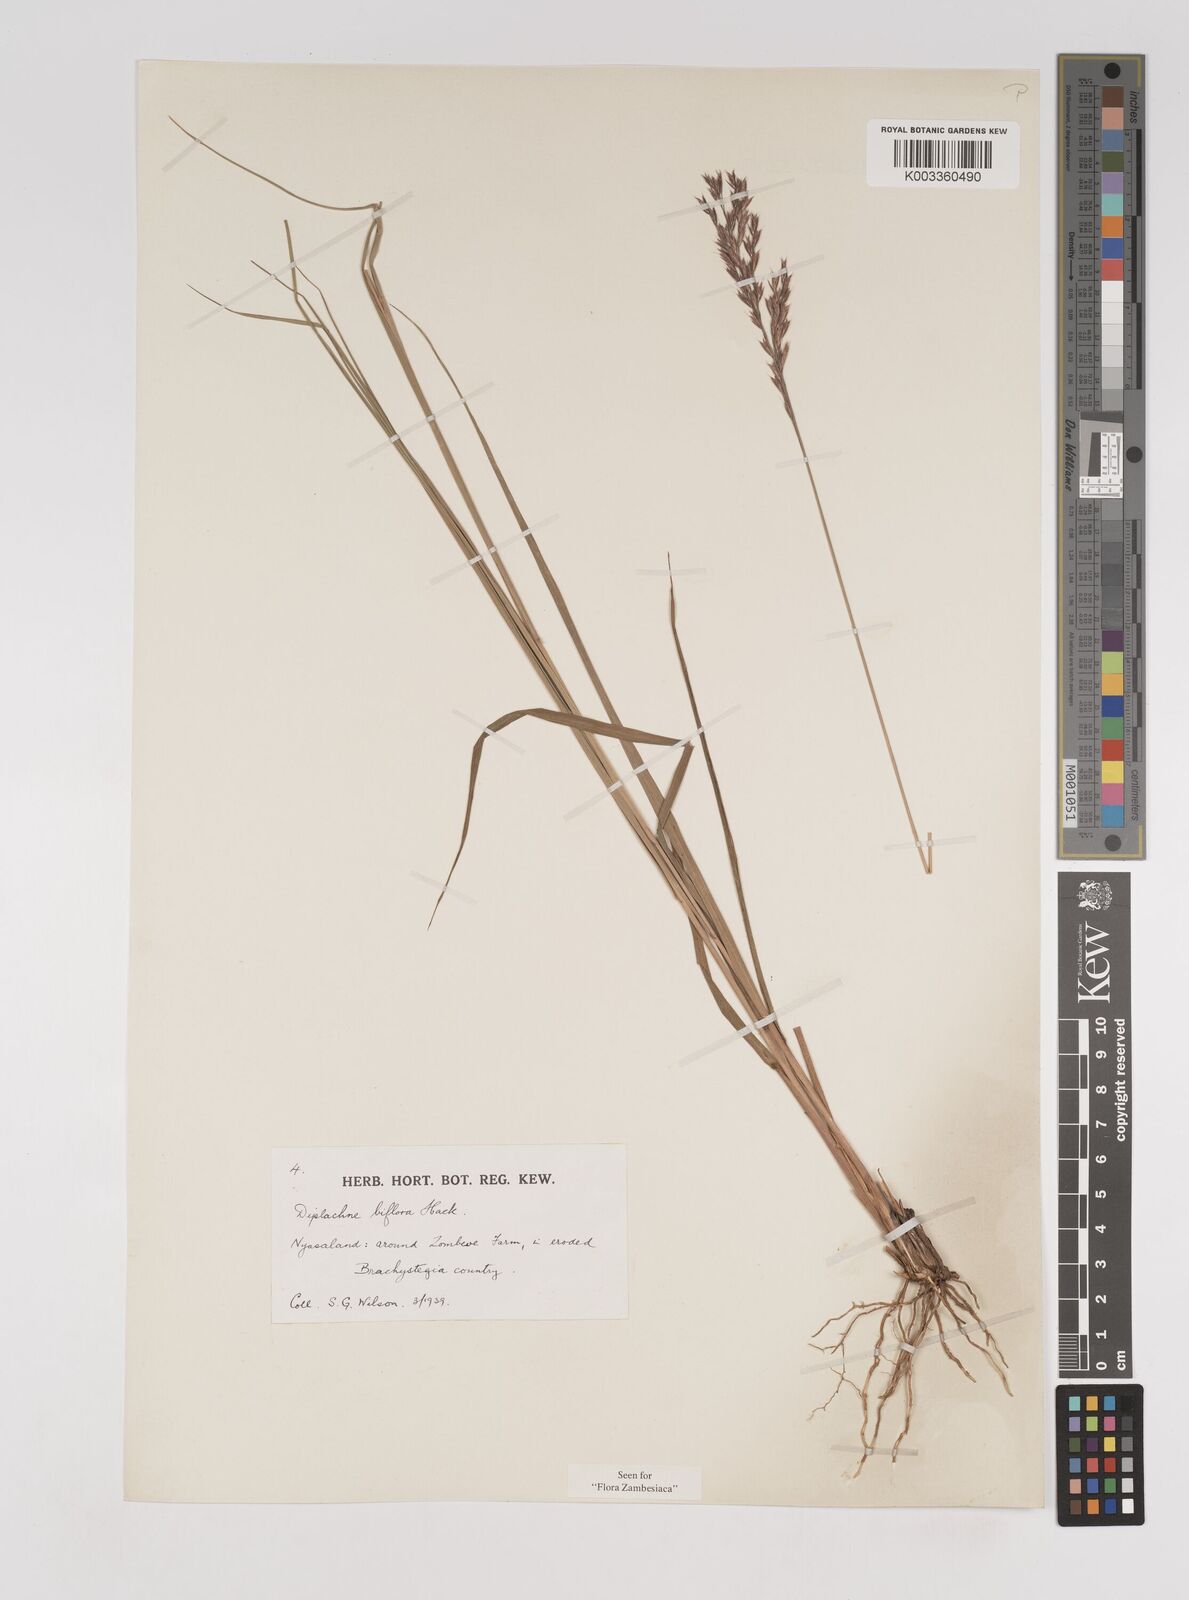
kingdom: Plantae
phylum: Tracheophyta
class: Liliopsida
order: Poales
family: Poaceae
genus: Bewsia
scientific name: Bewsia biflora
